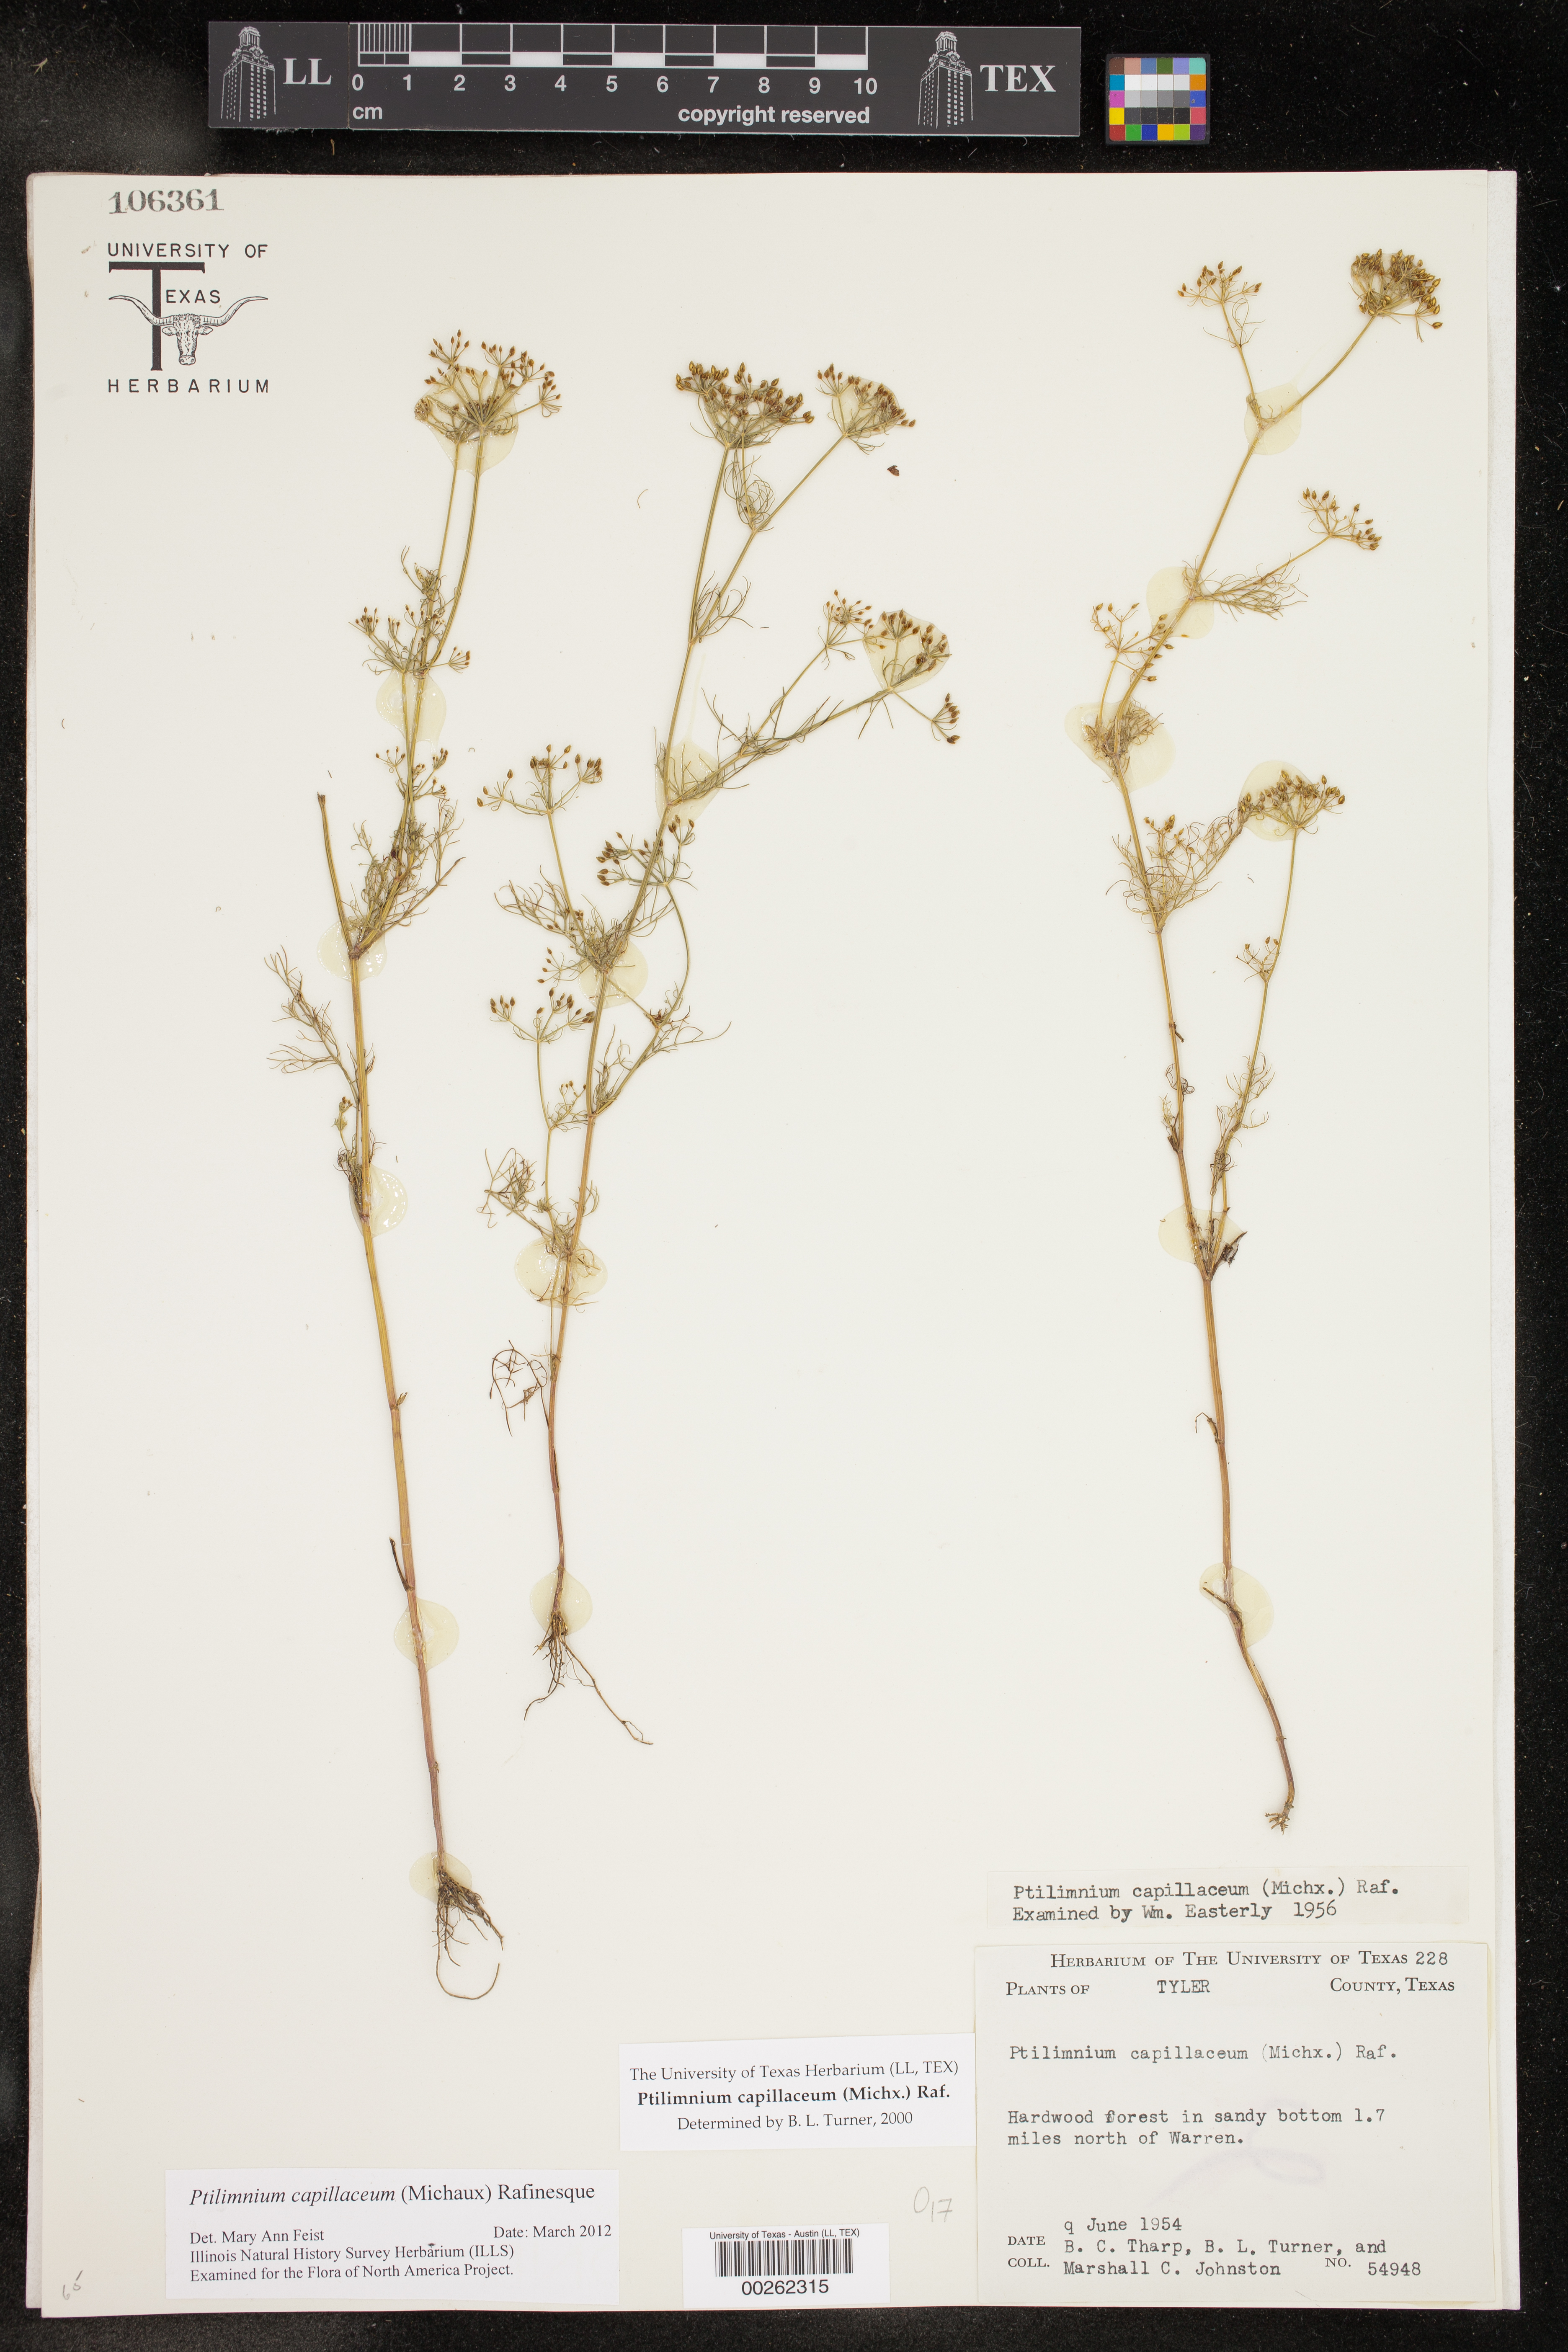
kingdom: Plantae
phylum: Tracheophyta
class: Magnoliopsida
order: Apiales
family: Apiaceae
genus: Ptilimnium
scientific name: Ptilimnium capillaceum
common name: Herbwilliam
